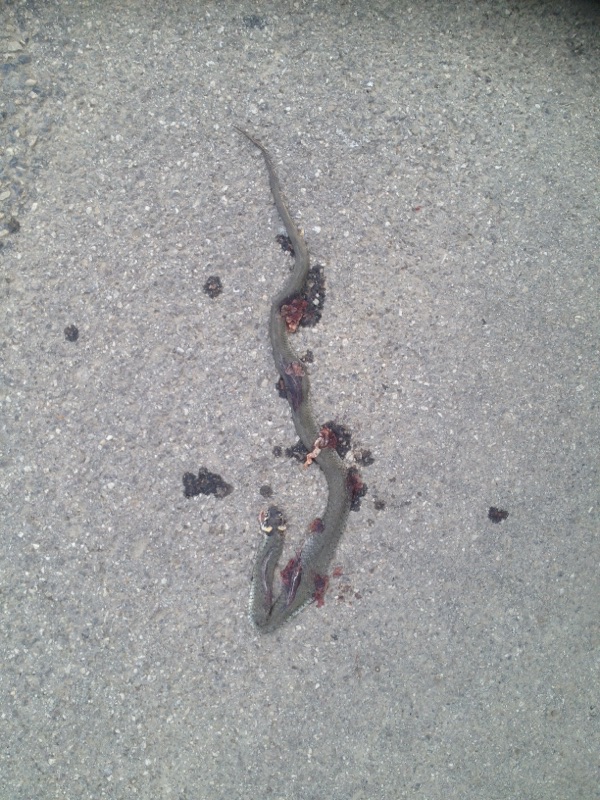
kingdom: Animalia
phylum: Chordata
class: Squamata
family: Colubridae
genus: Natrix
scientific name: Natrix natrix
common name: Grass snake
